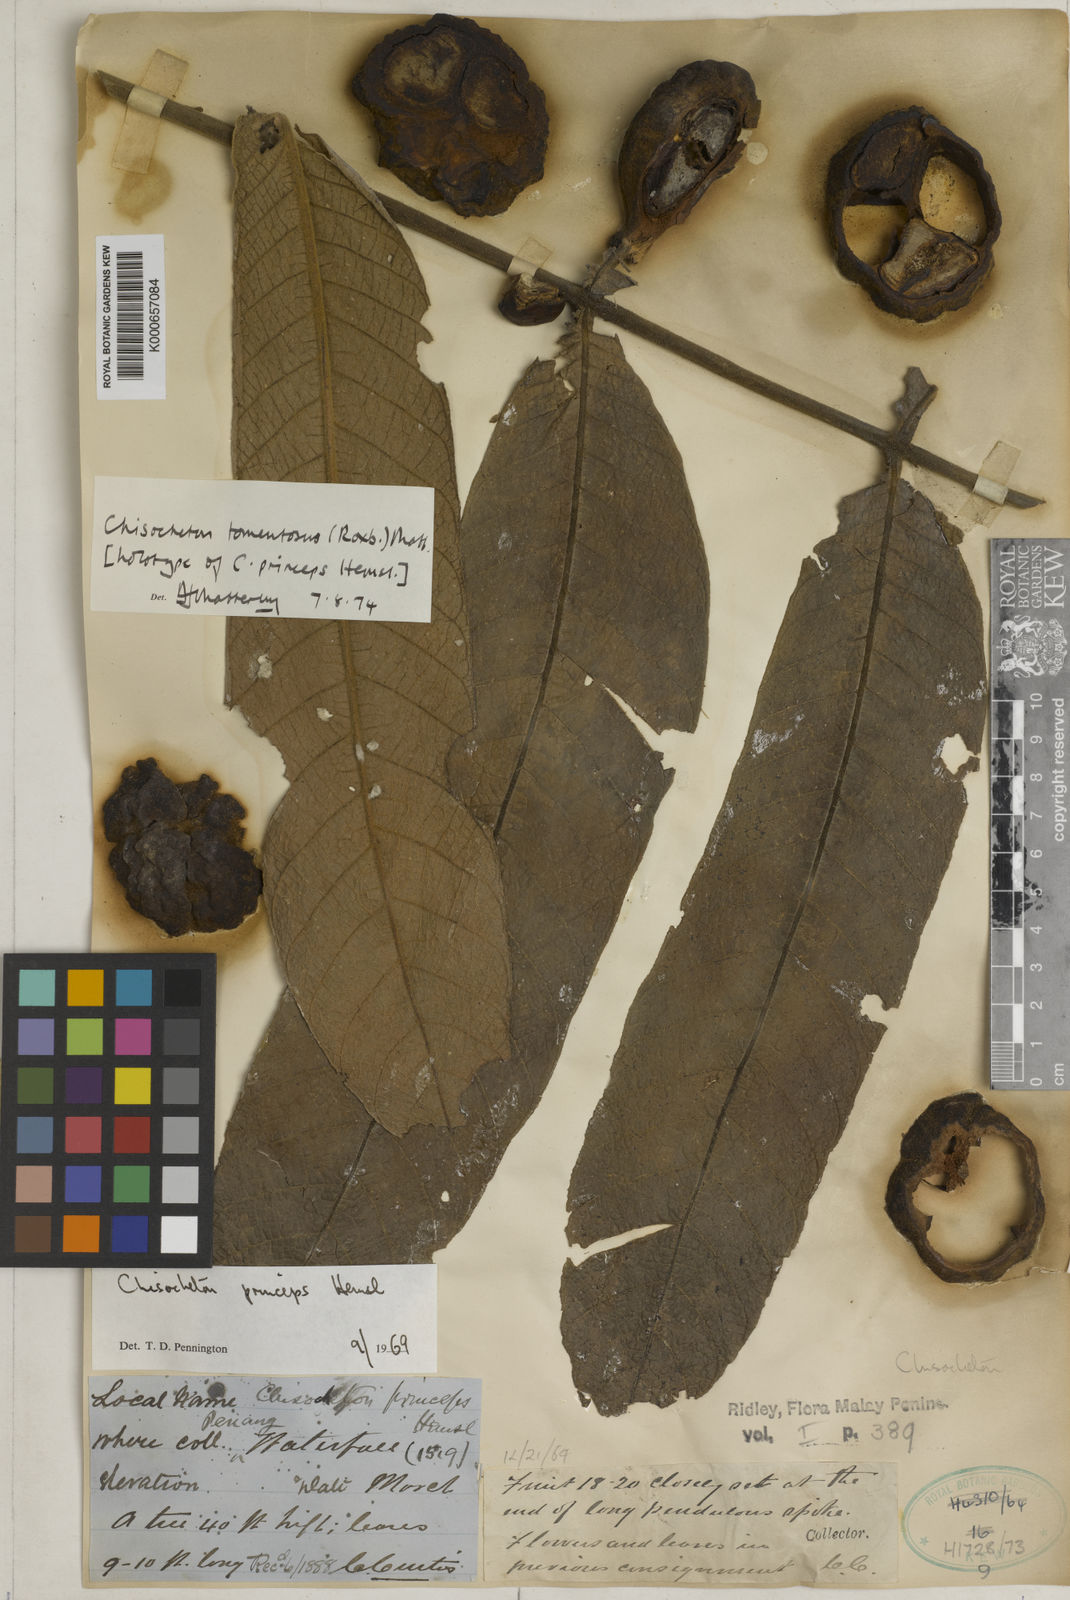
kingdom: Plantae
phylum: Tracheophyta
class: Magnoliopsida
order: Sapindales
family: Meliaceae
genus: Chisocheton
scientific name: Chisocheton tomentosus
